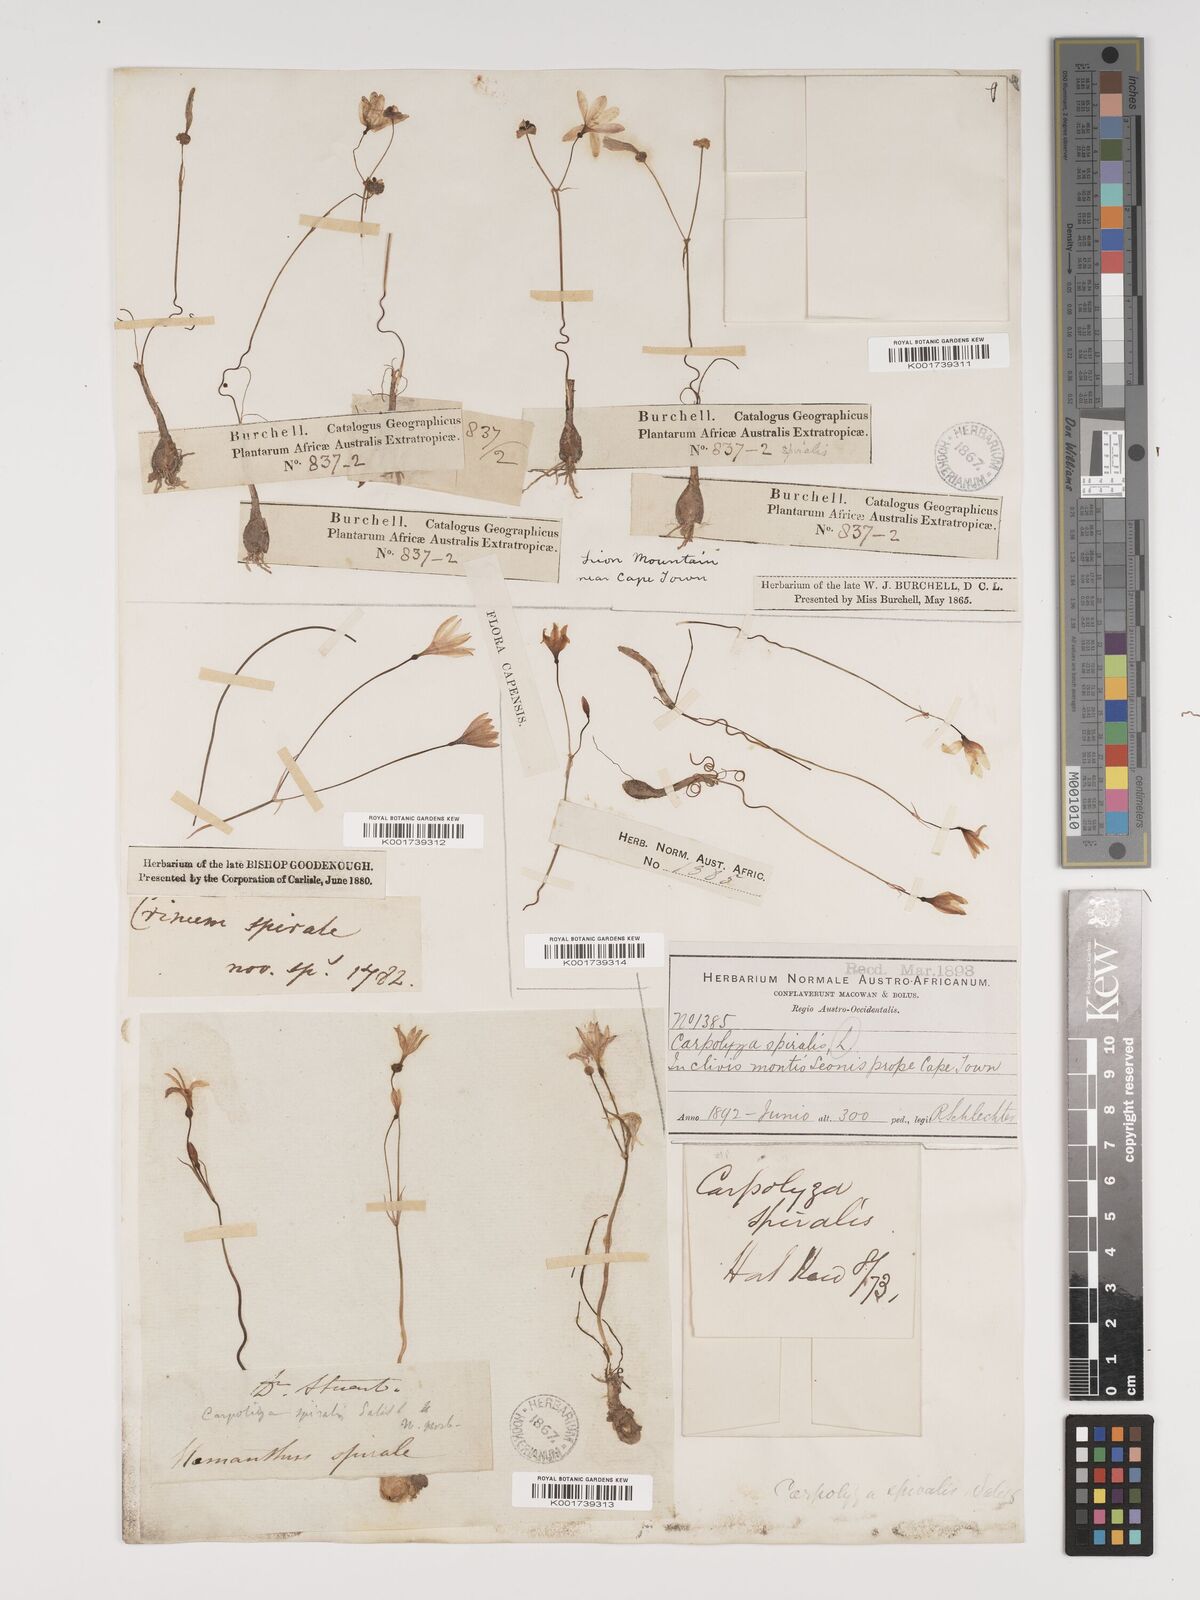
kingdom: Plantae
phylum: Tracheophyta
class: Liliopsida
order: Asparagales
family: Amaryllidaceae
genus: Strumaria
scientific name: Strumaria spiralis
